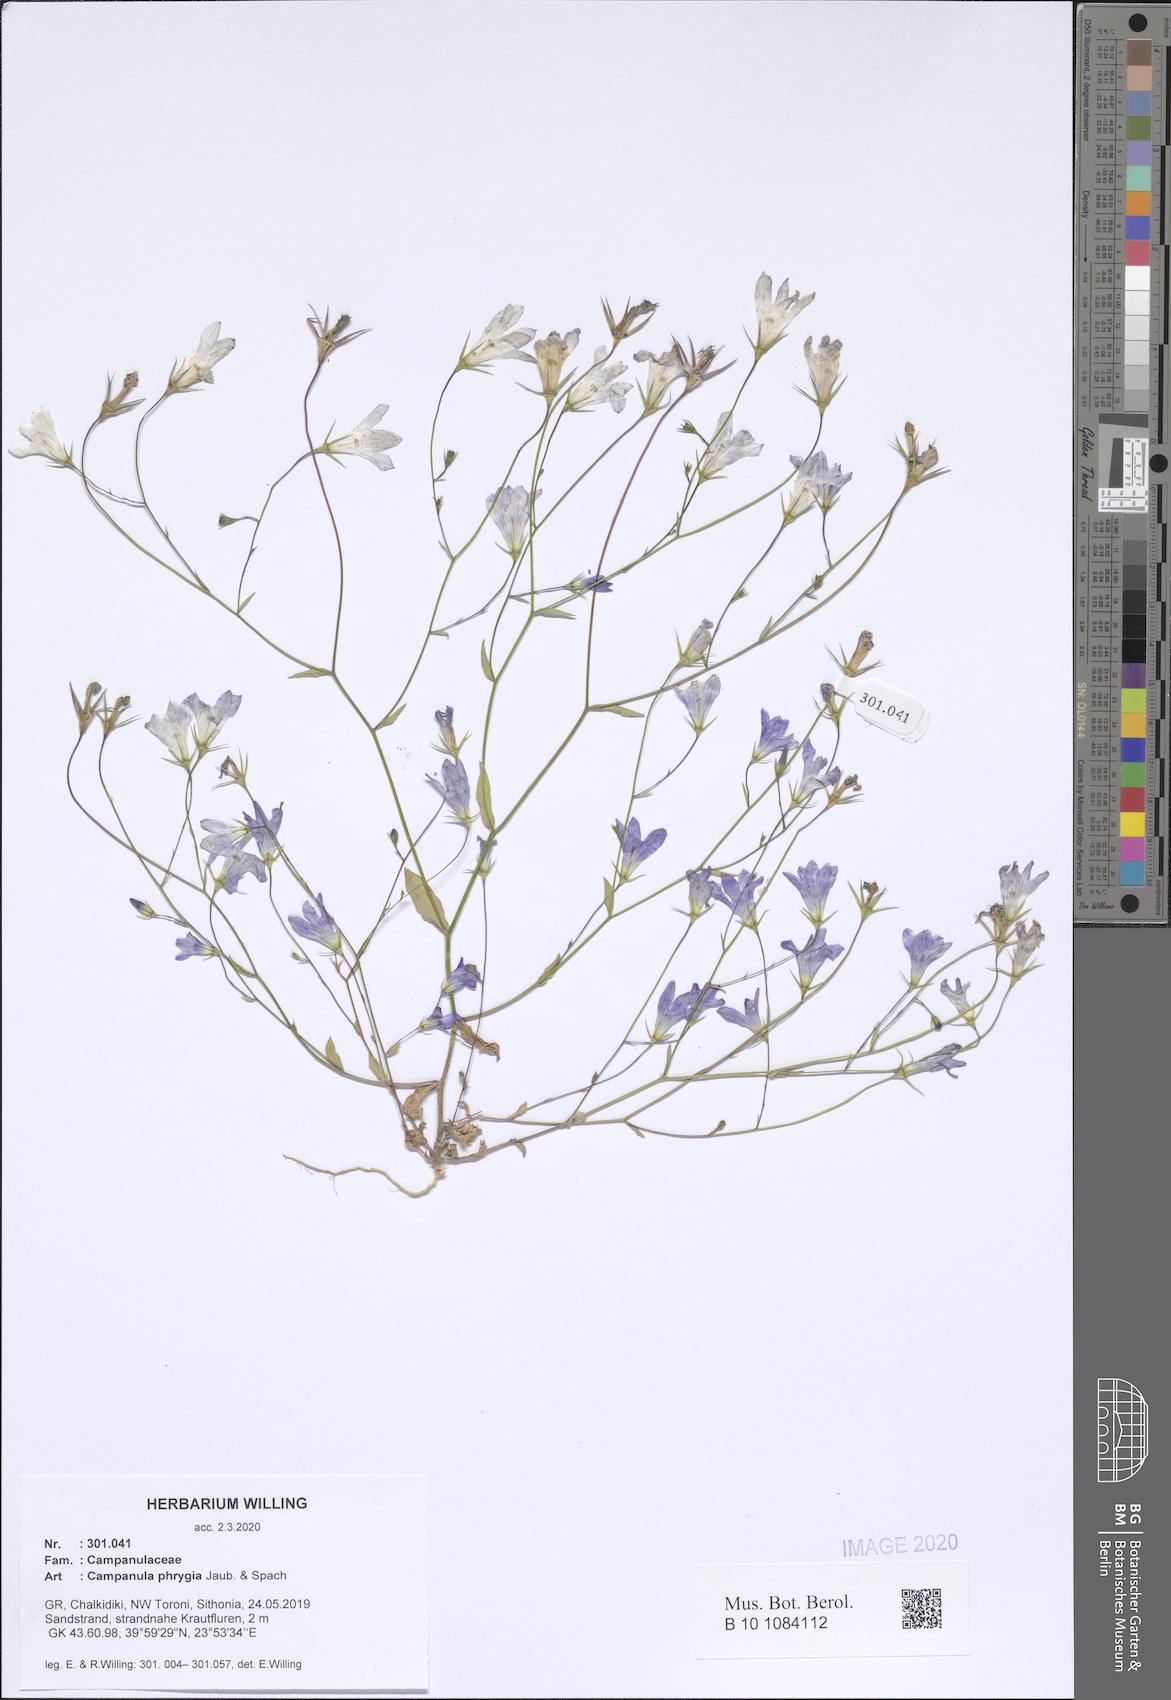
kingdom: Plantae
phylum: Tracheophyta
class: Magnoliopsida
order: Asterales
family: Campanulaceae
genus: Campanula
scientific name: Campanula phrygia
